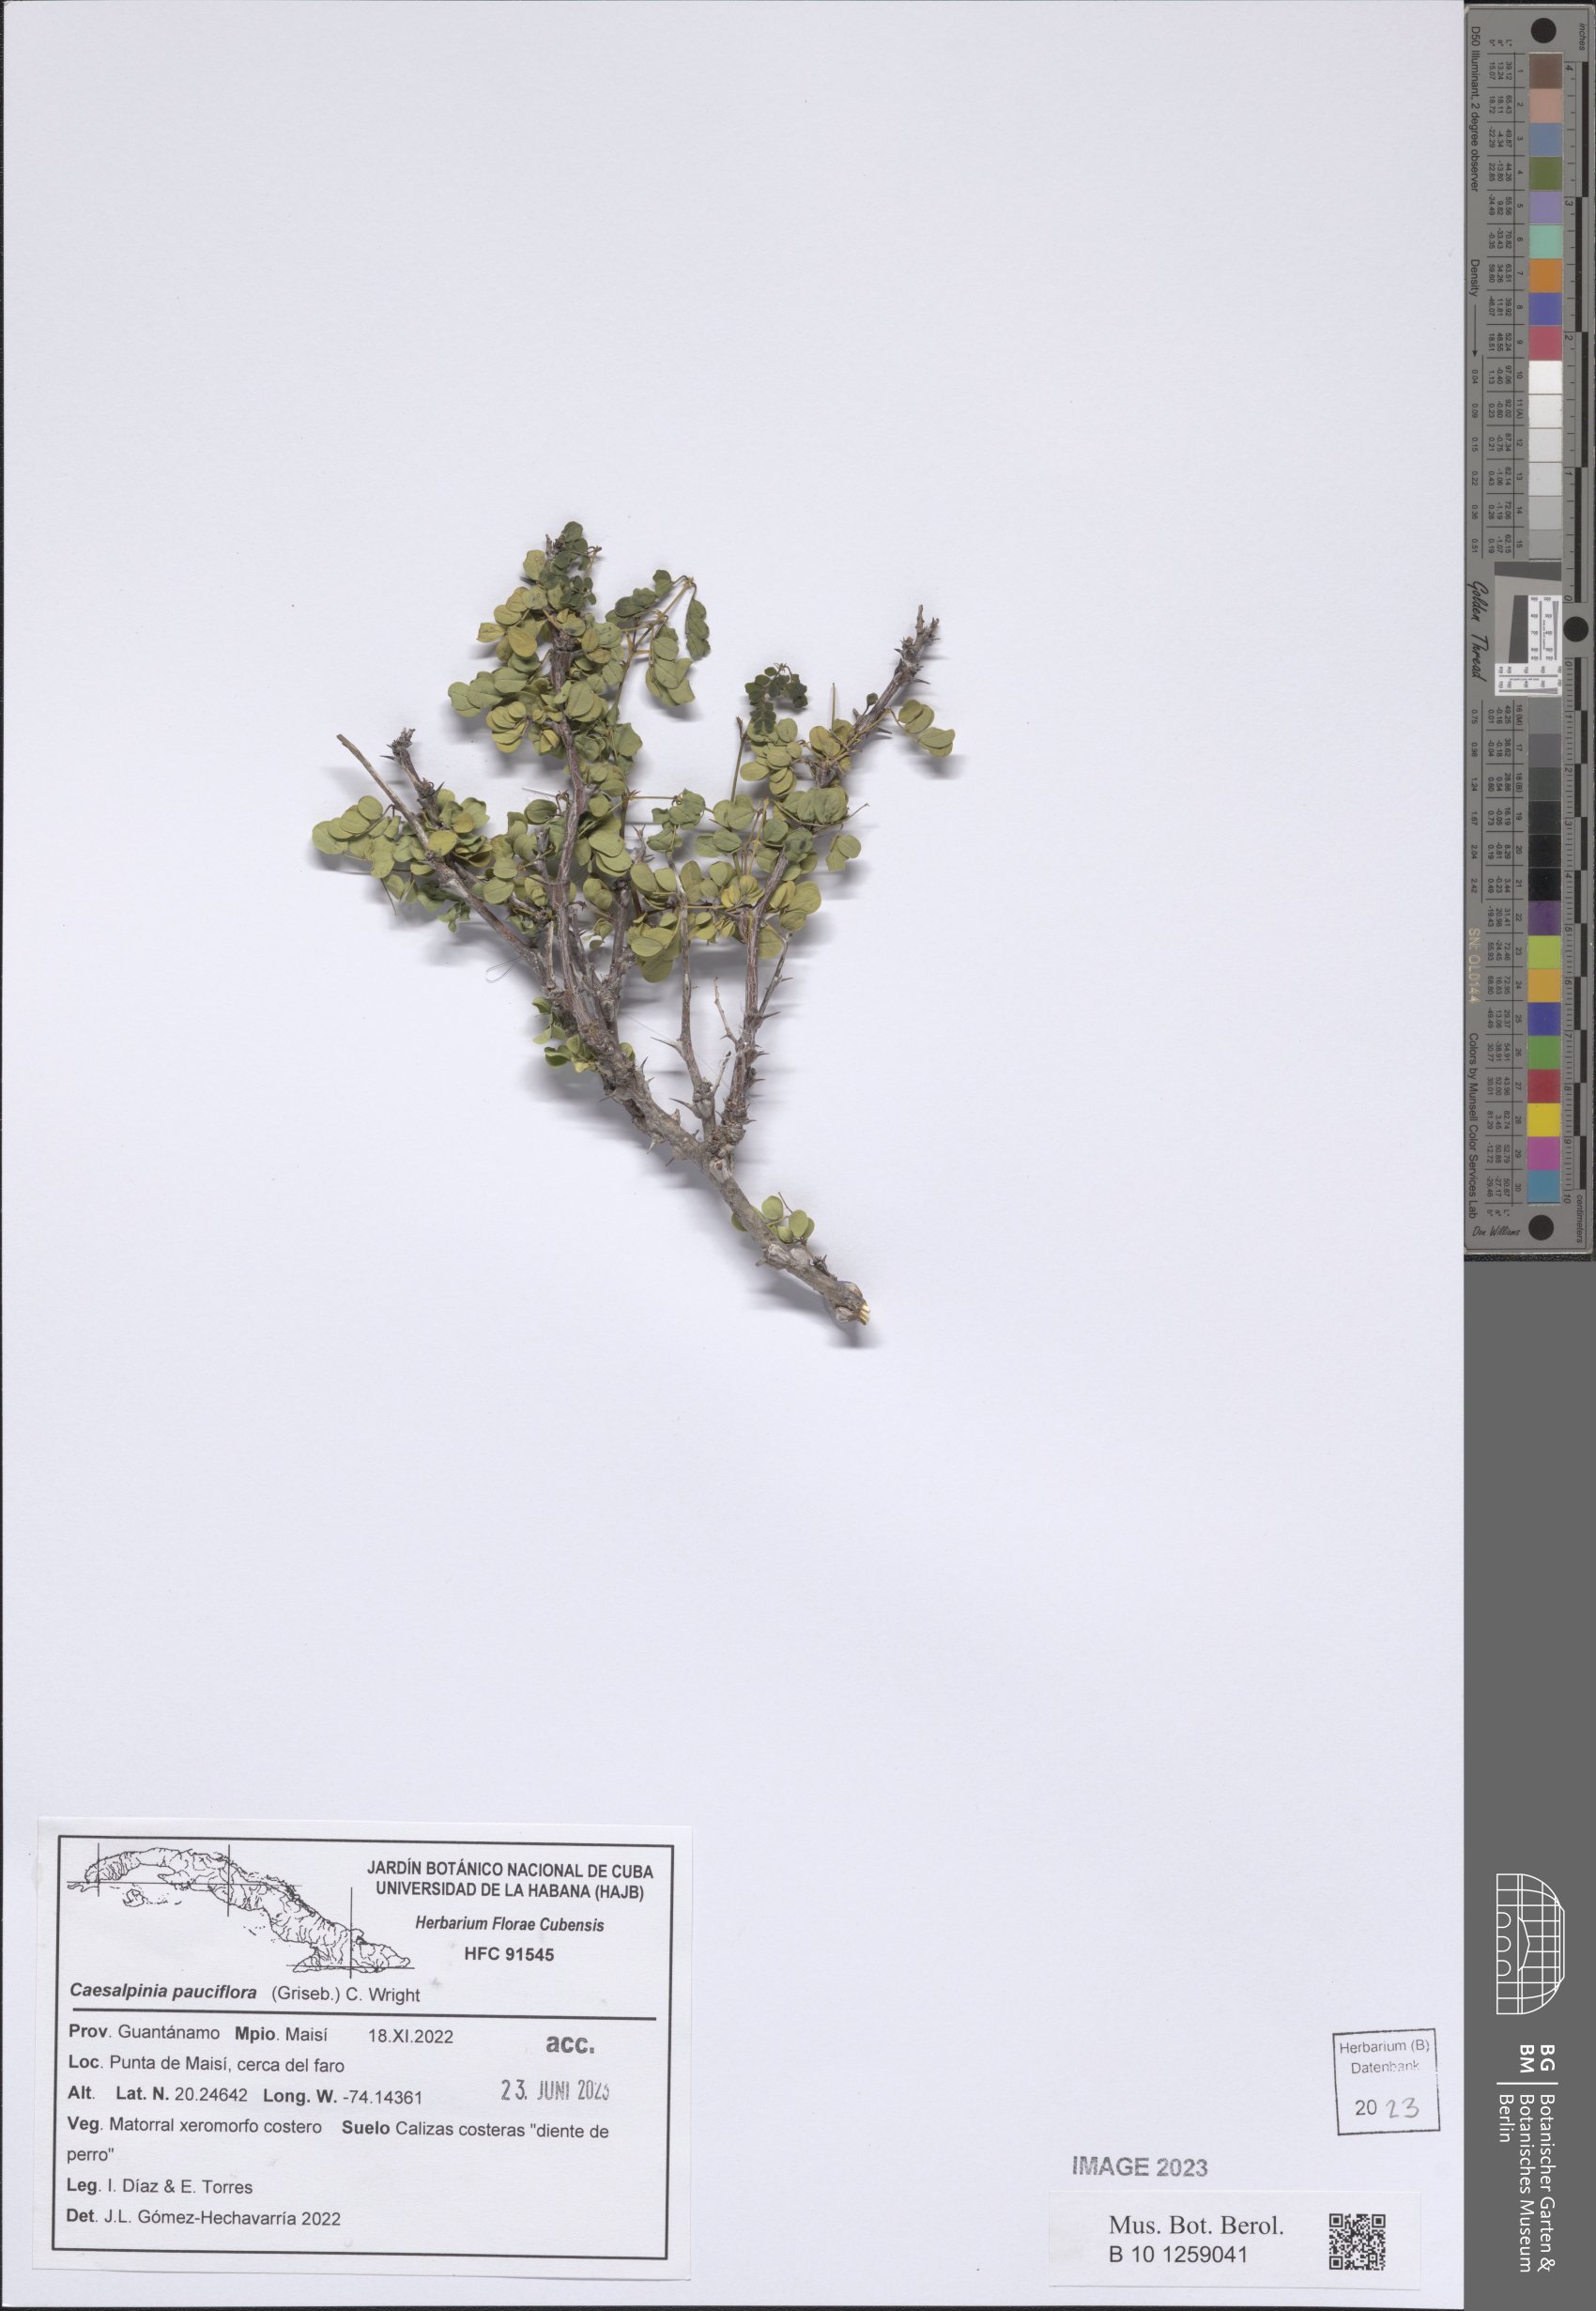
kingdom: Plantae
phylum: Tracheophyta
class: Magnoliopsida
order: Fabales
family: Fabaceae
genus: Denisophytum
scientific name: Denisophytum pauciflorum
